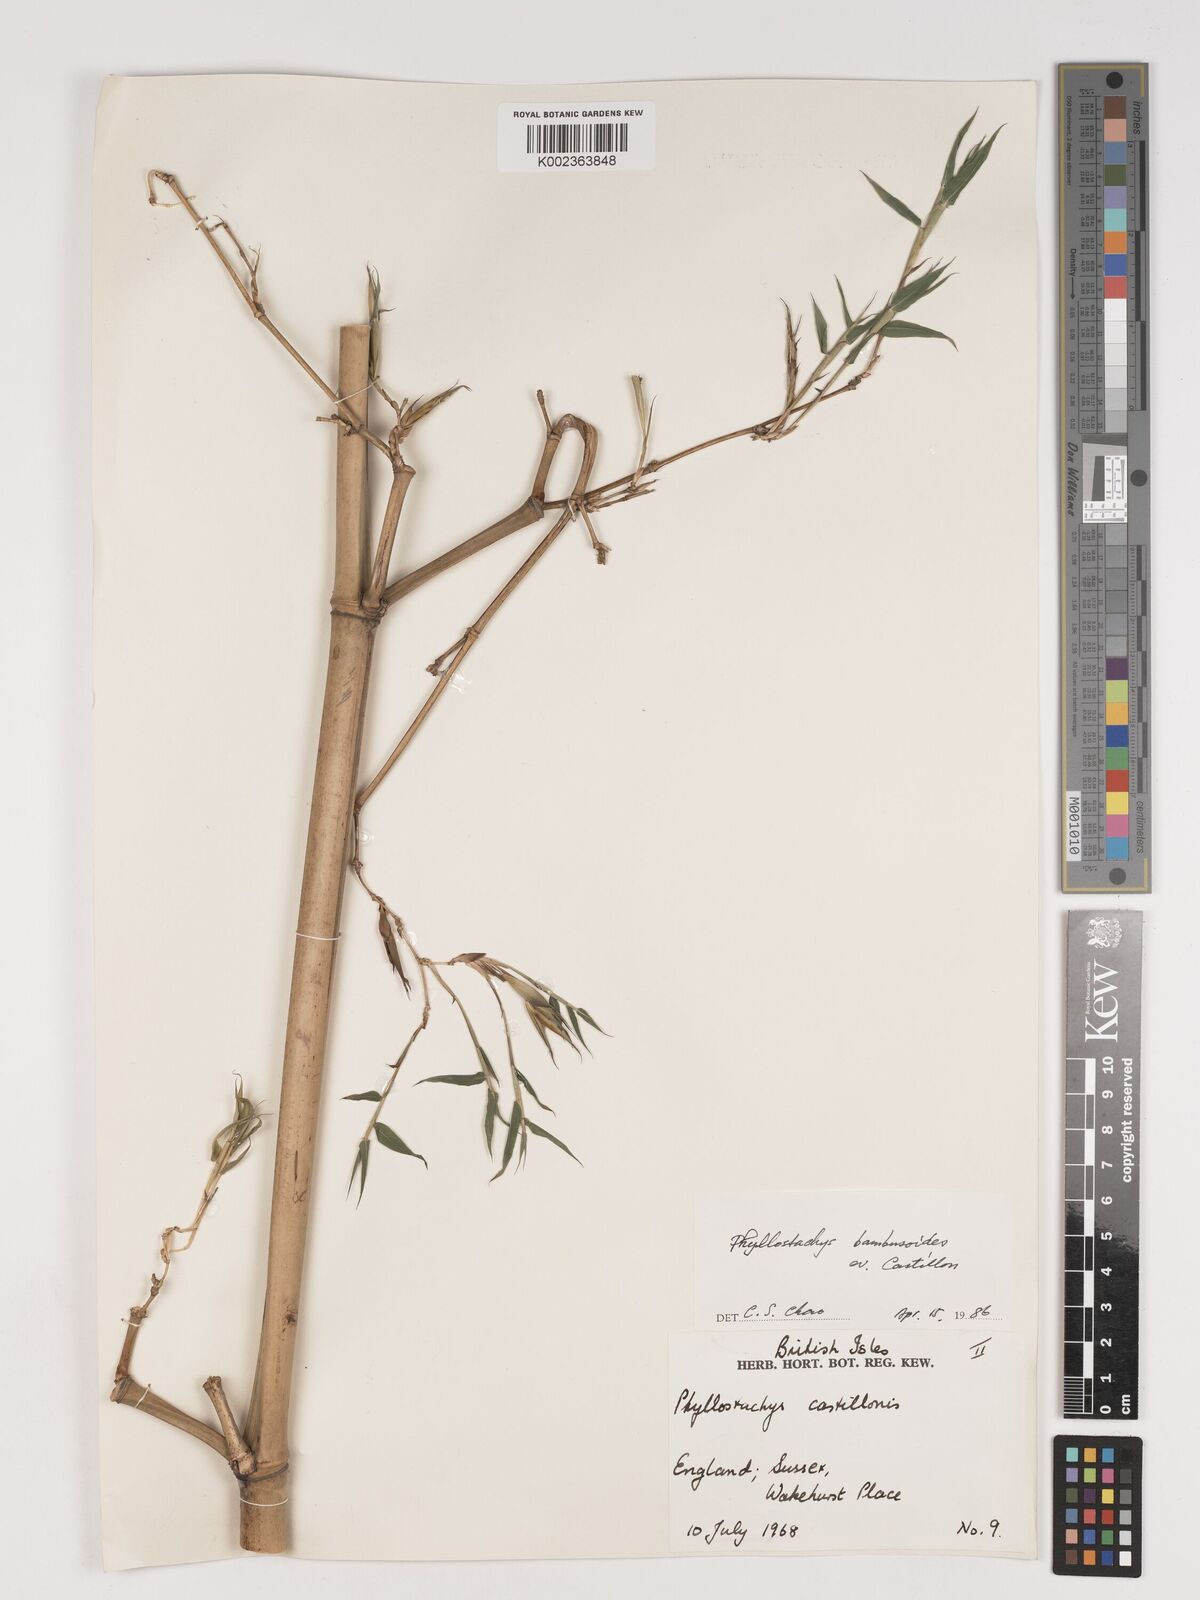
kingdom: Plantae
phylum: Tracheophyta
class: Liliopsida
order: Poales
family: Poaceae
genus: Phyllostachys
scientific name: Phyllostachys reticulata
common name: Bamboo
